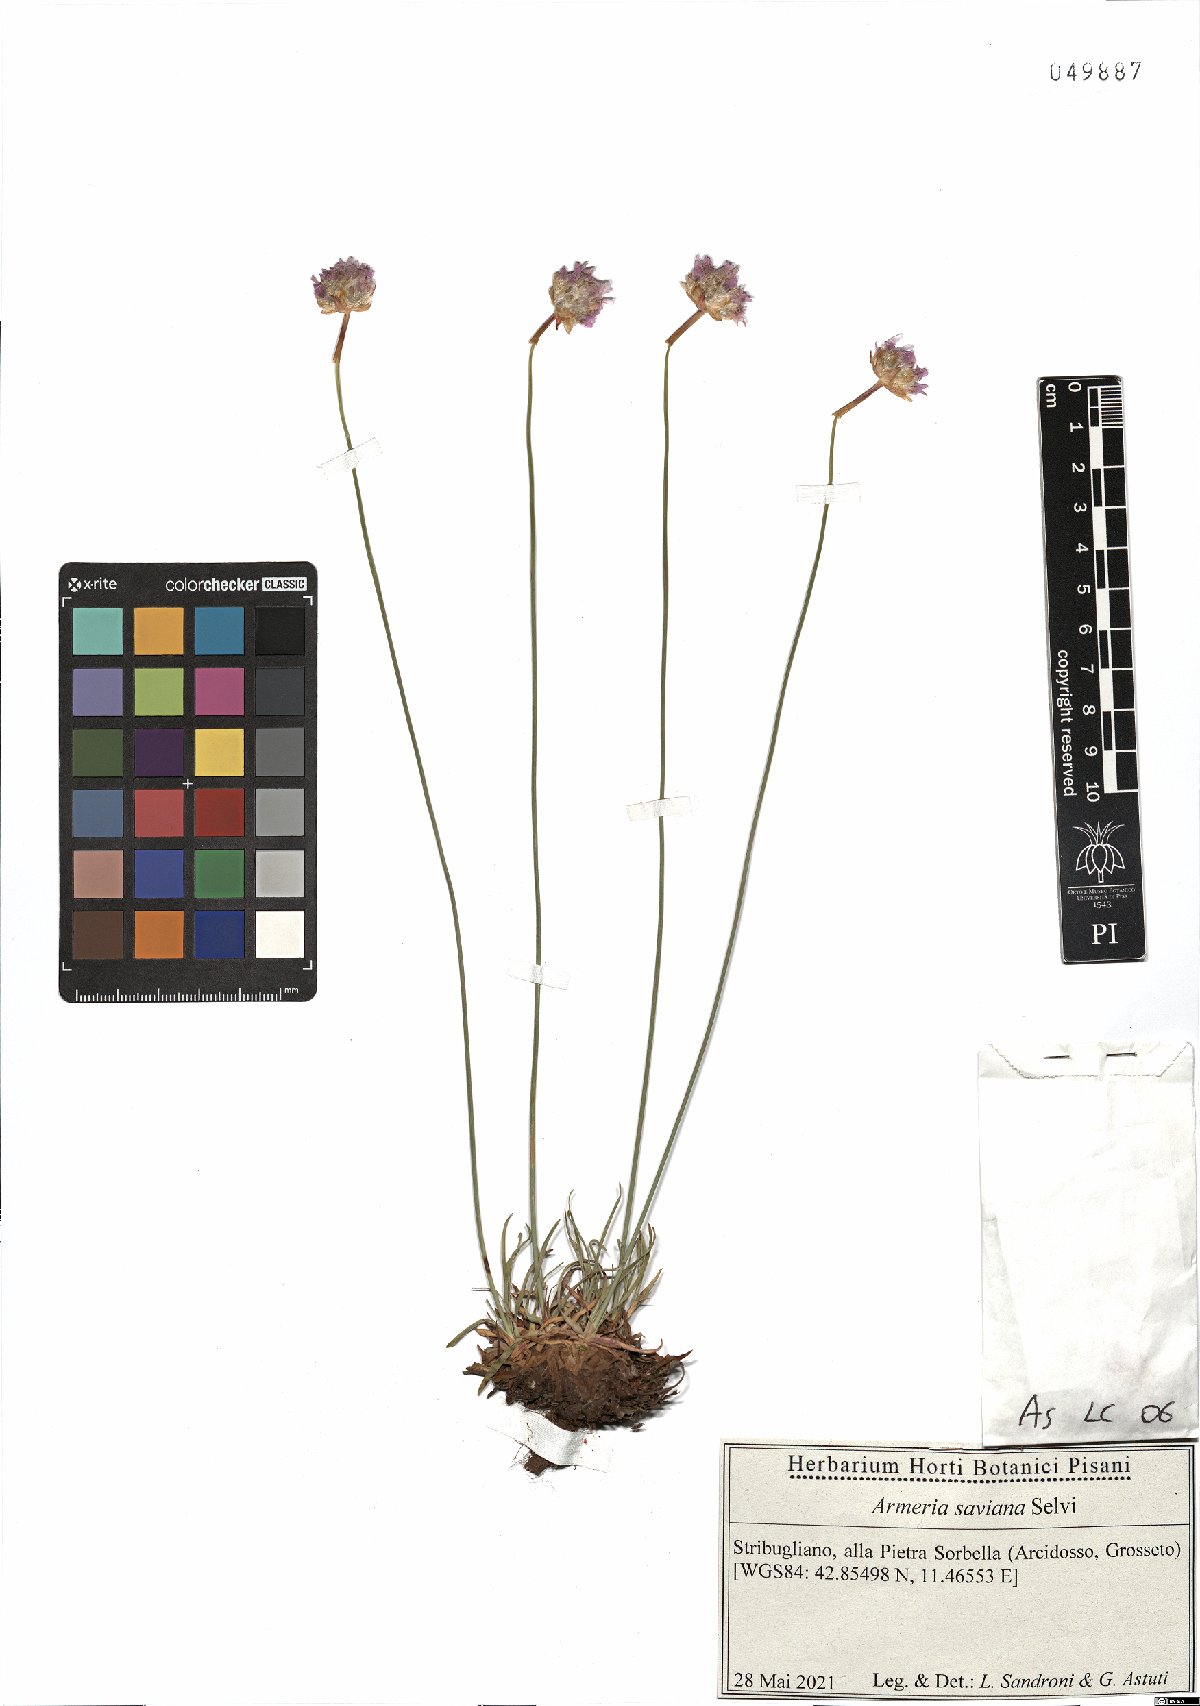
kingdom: Plantae
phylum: Tracheophyta
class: Magnoliopsida
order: Caryophyllales
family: Plumbaginaceae
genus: Armeria
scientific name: Armeria saviana
